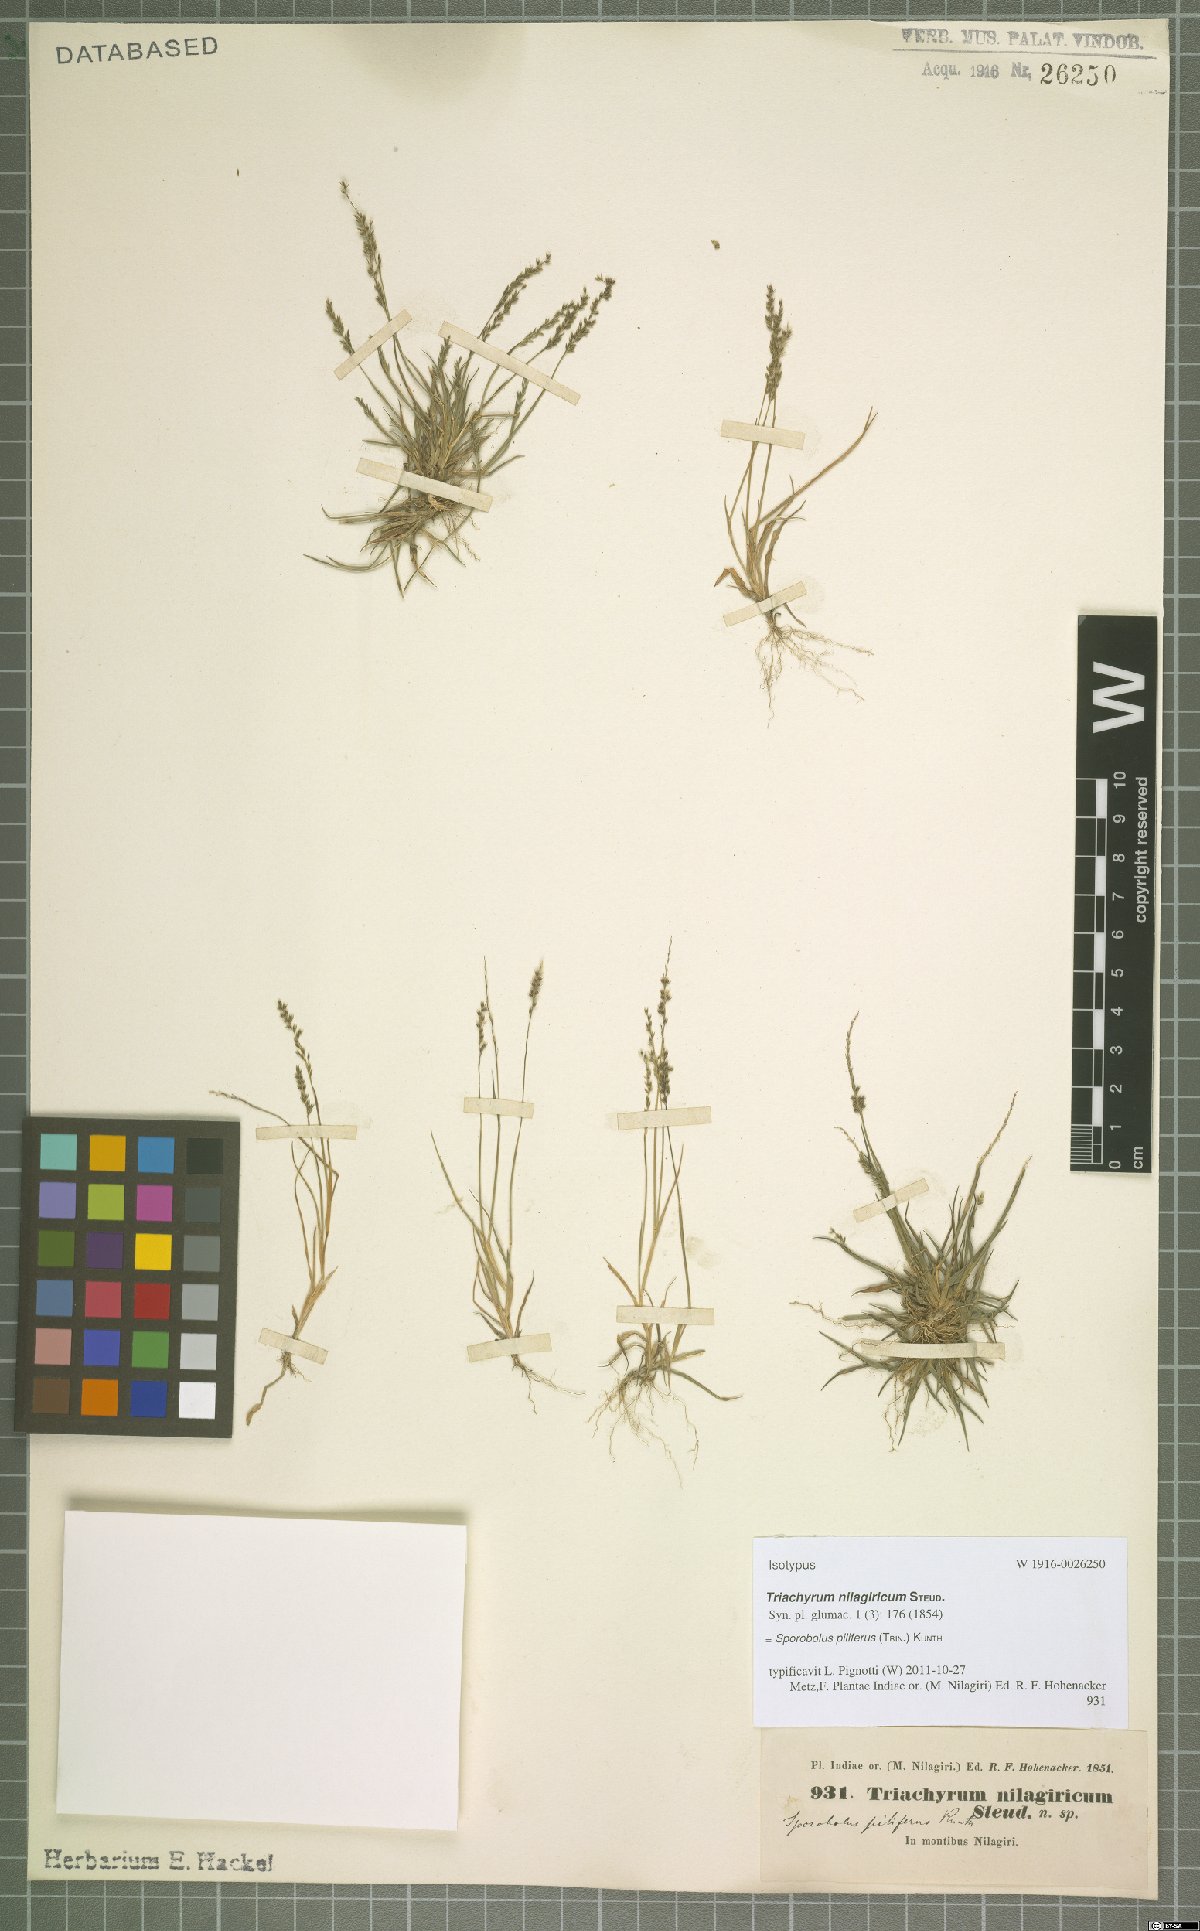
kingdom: Plantae
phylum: Tracheophyta
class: Liliopsida
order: Poales
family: Poaceae
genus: Sporobolus
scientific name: Sporobolus pilifer
